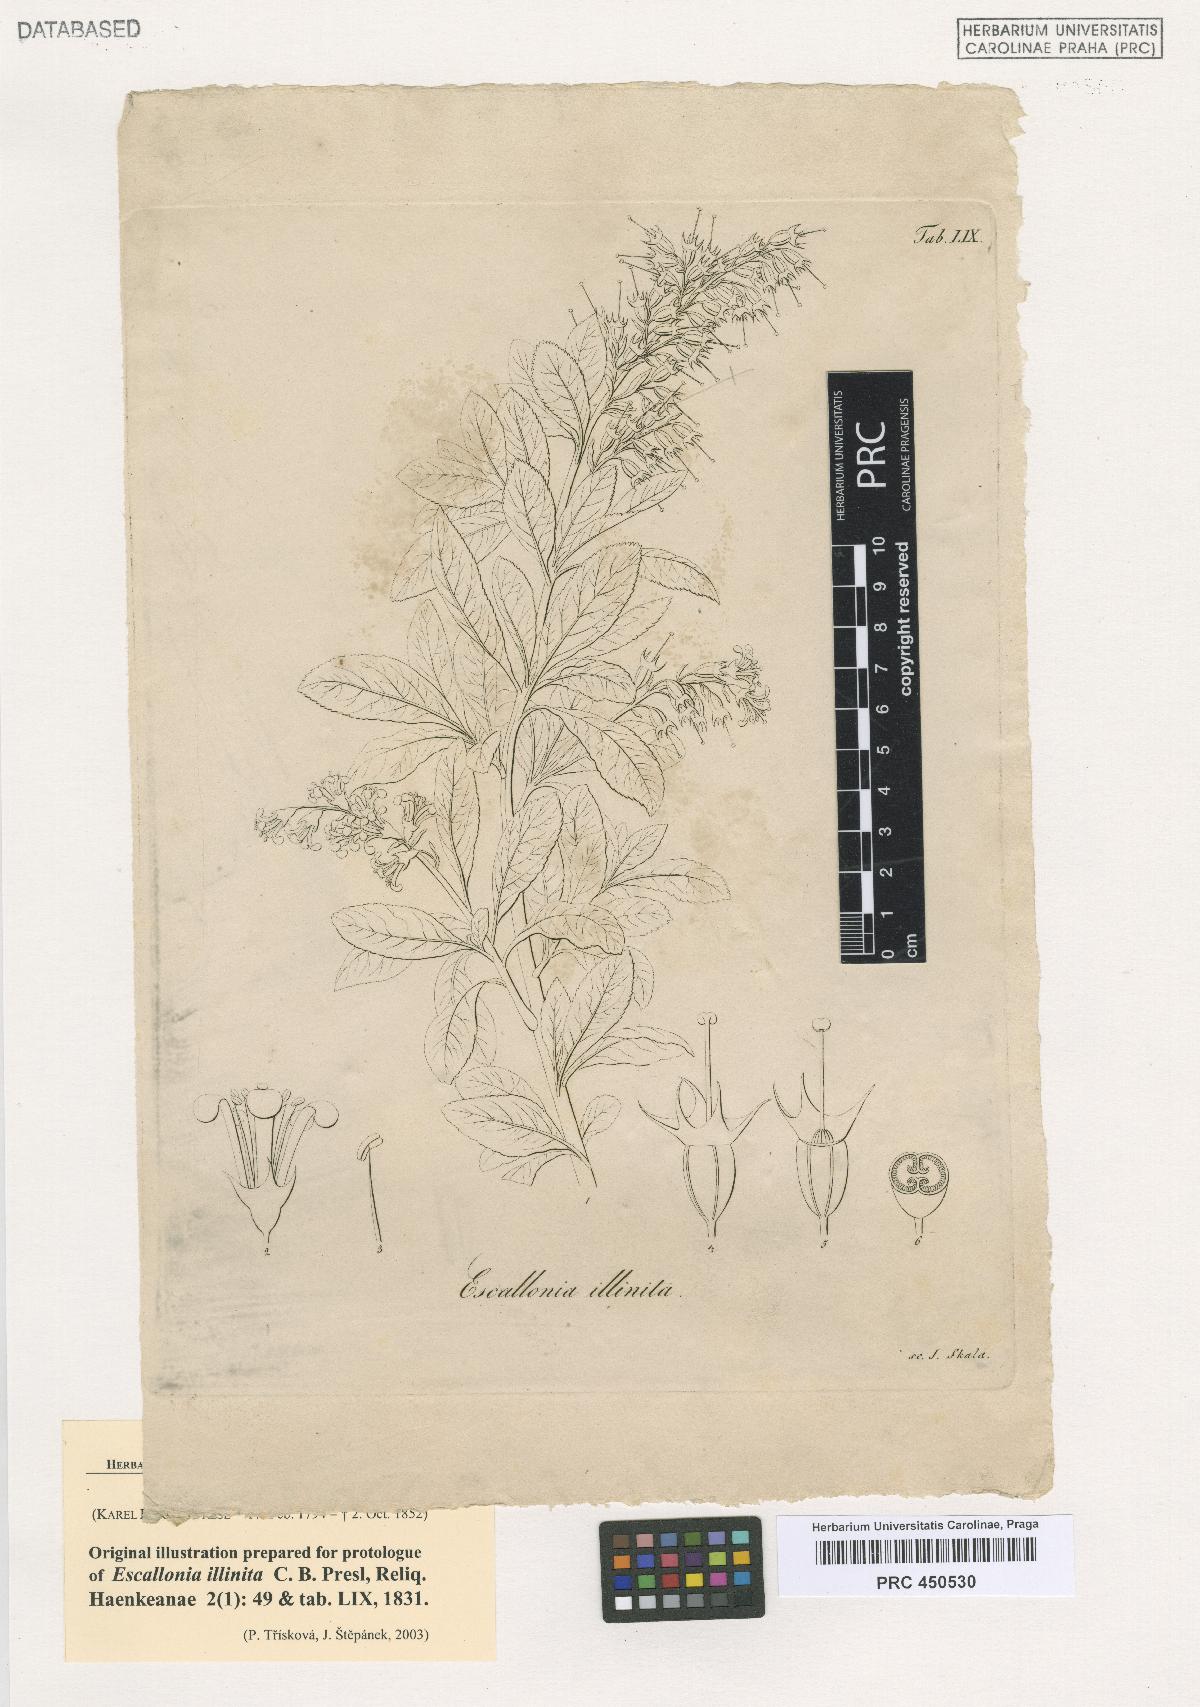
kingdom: Plantae
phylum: Tracheophyta
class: Magnoliopsida
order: Escalloniales
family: Escalloniaceae
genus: Escallonia
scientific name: Escallonia illinita
